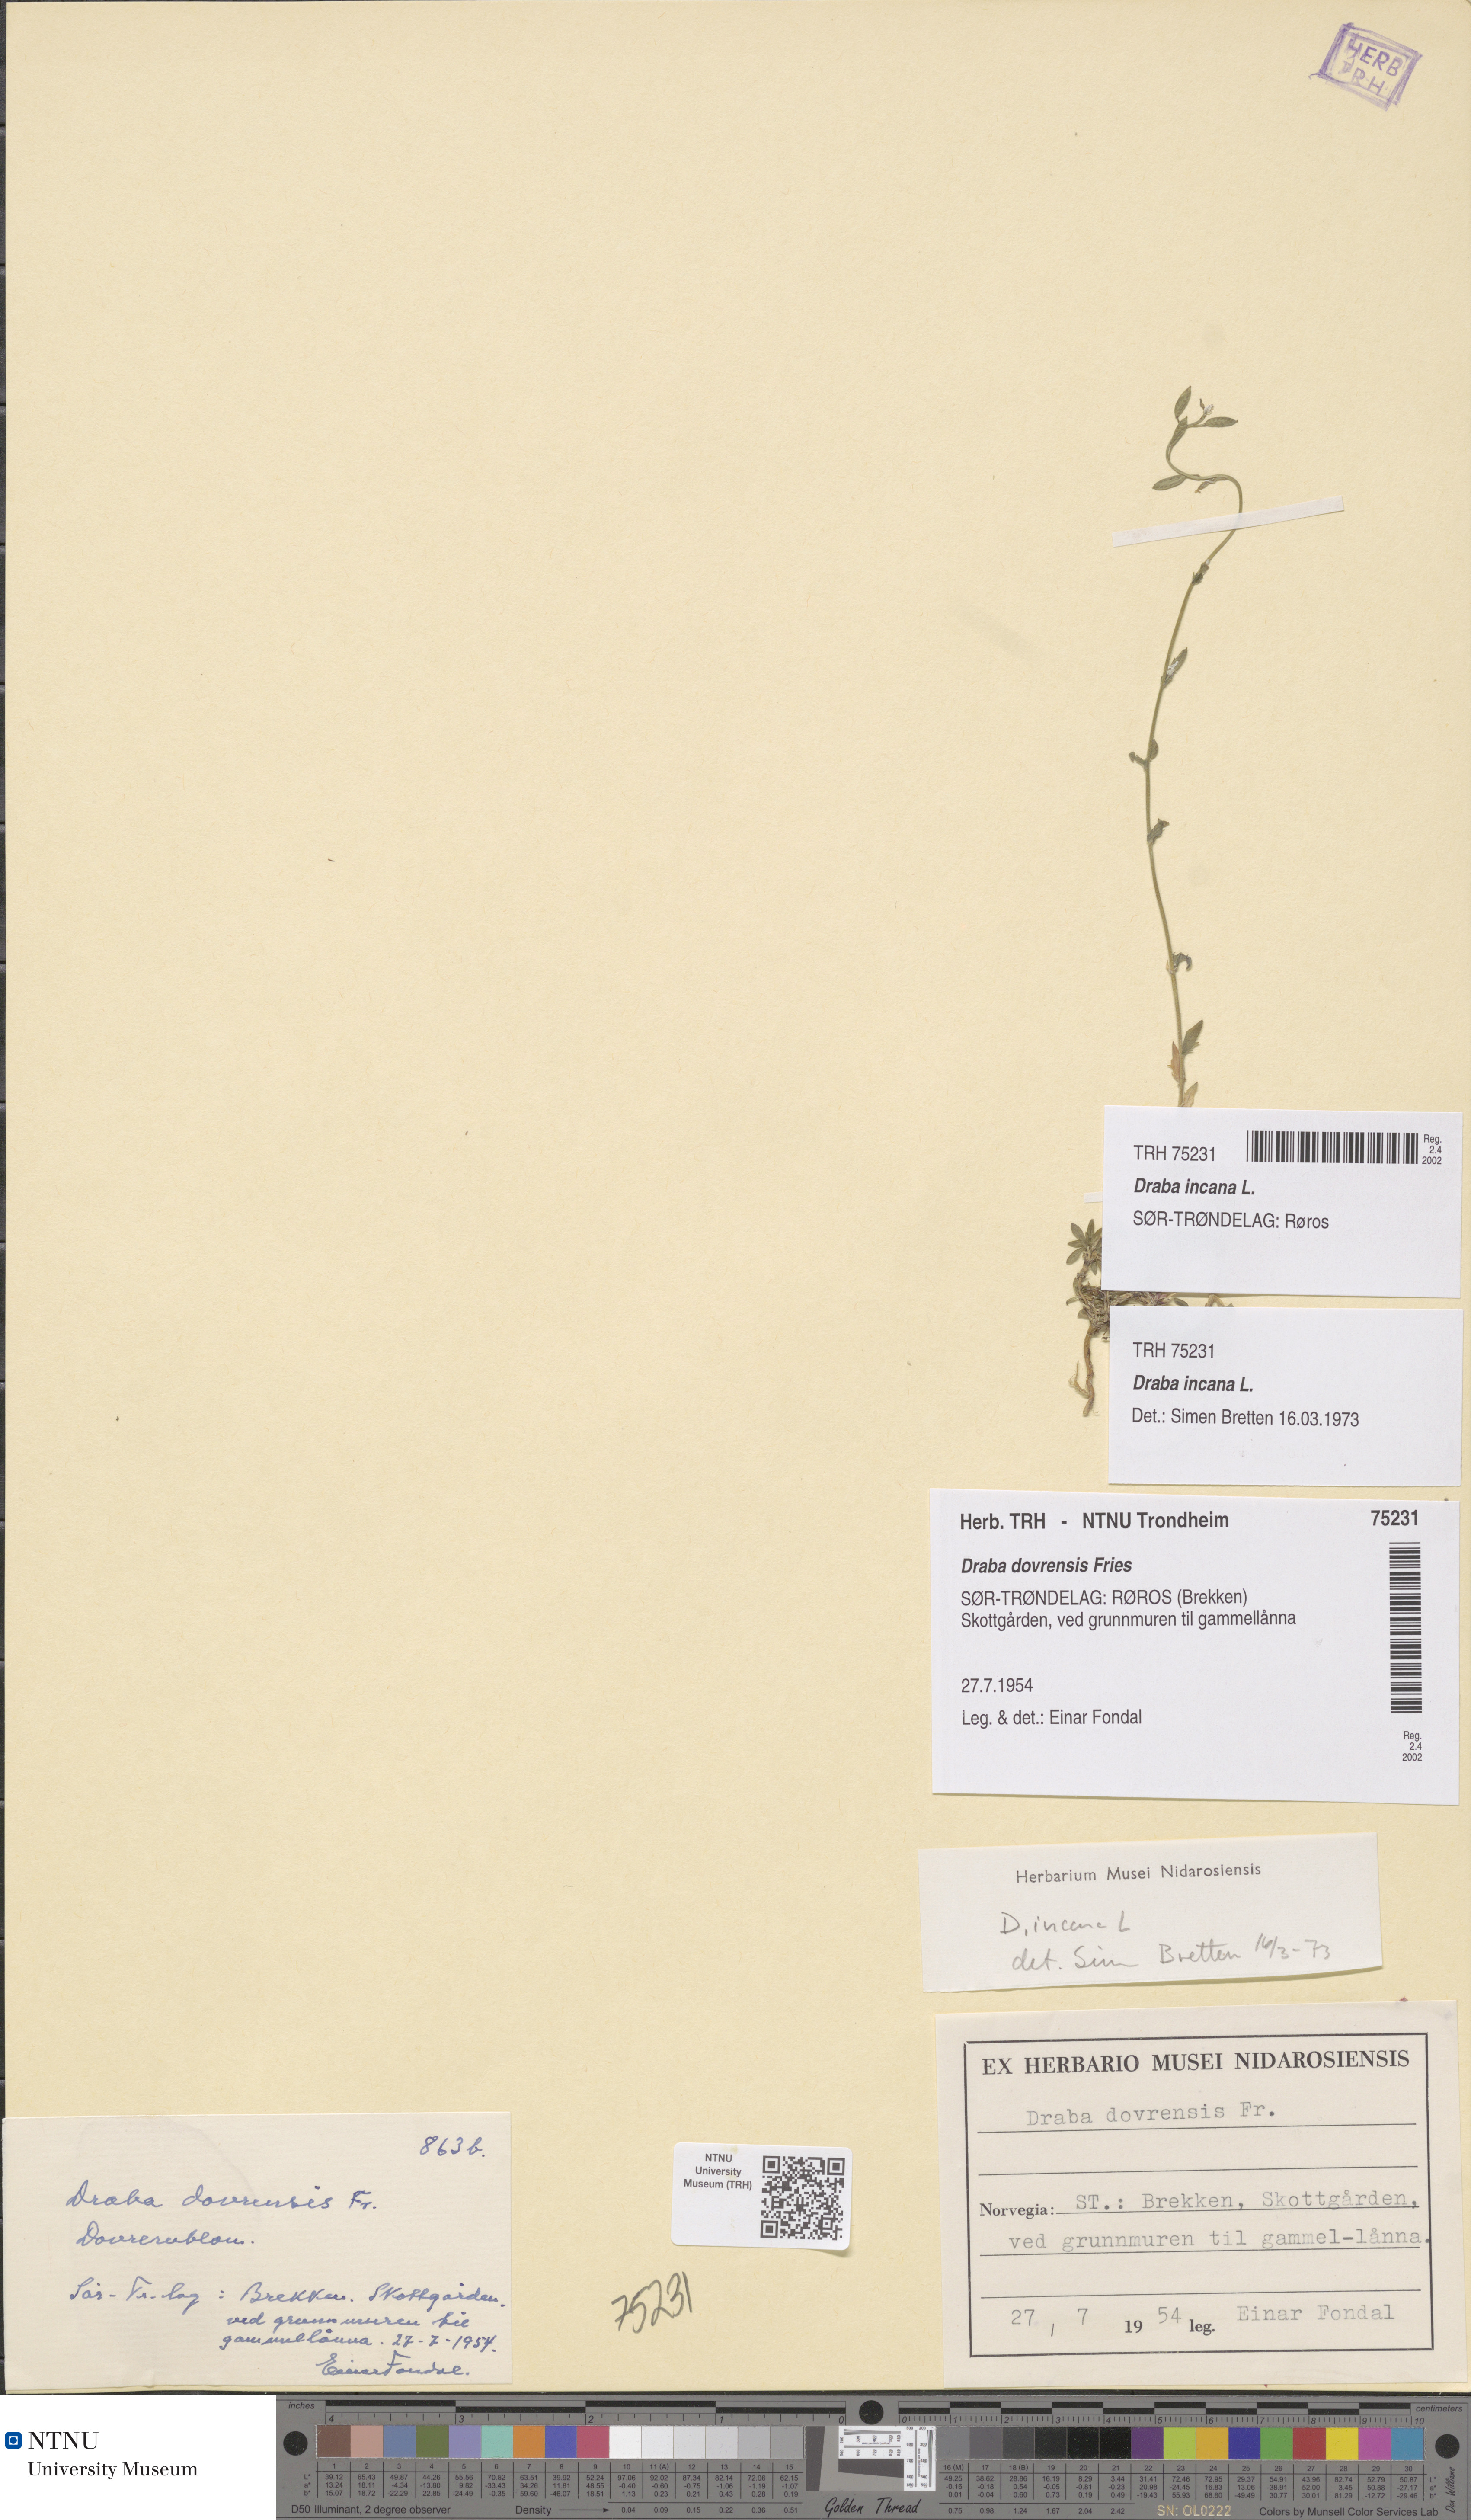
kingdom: Plantae
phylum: Tracheophyta
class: Magnoliopsida
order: Brassicales
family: Brassicaceae
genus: Draba
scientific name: Draba incana
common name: Hoary whitlow-grass
